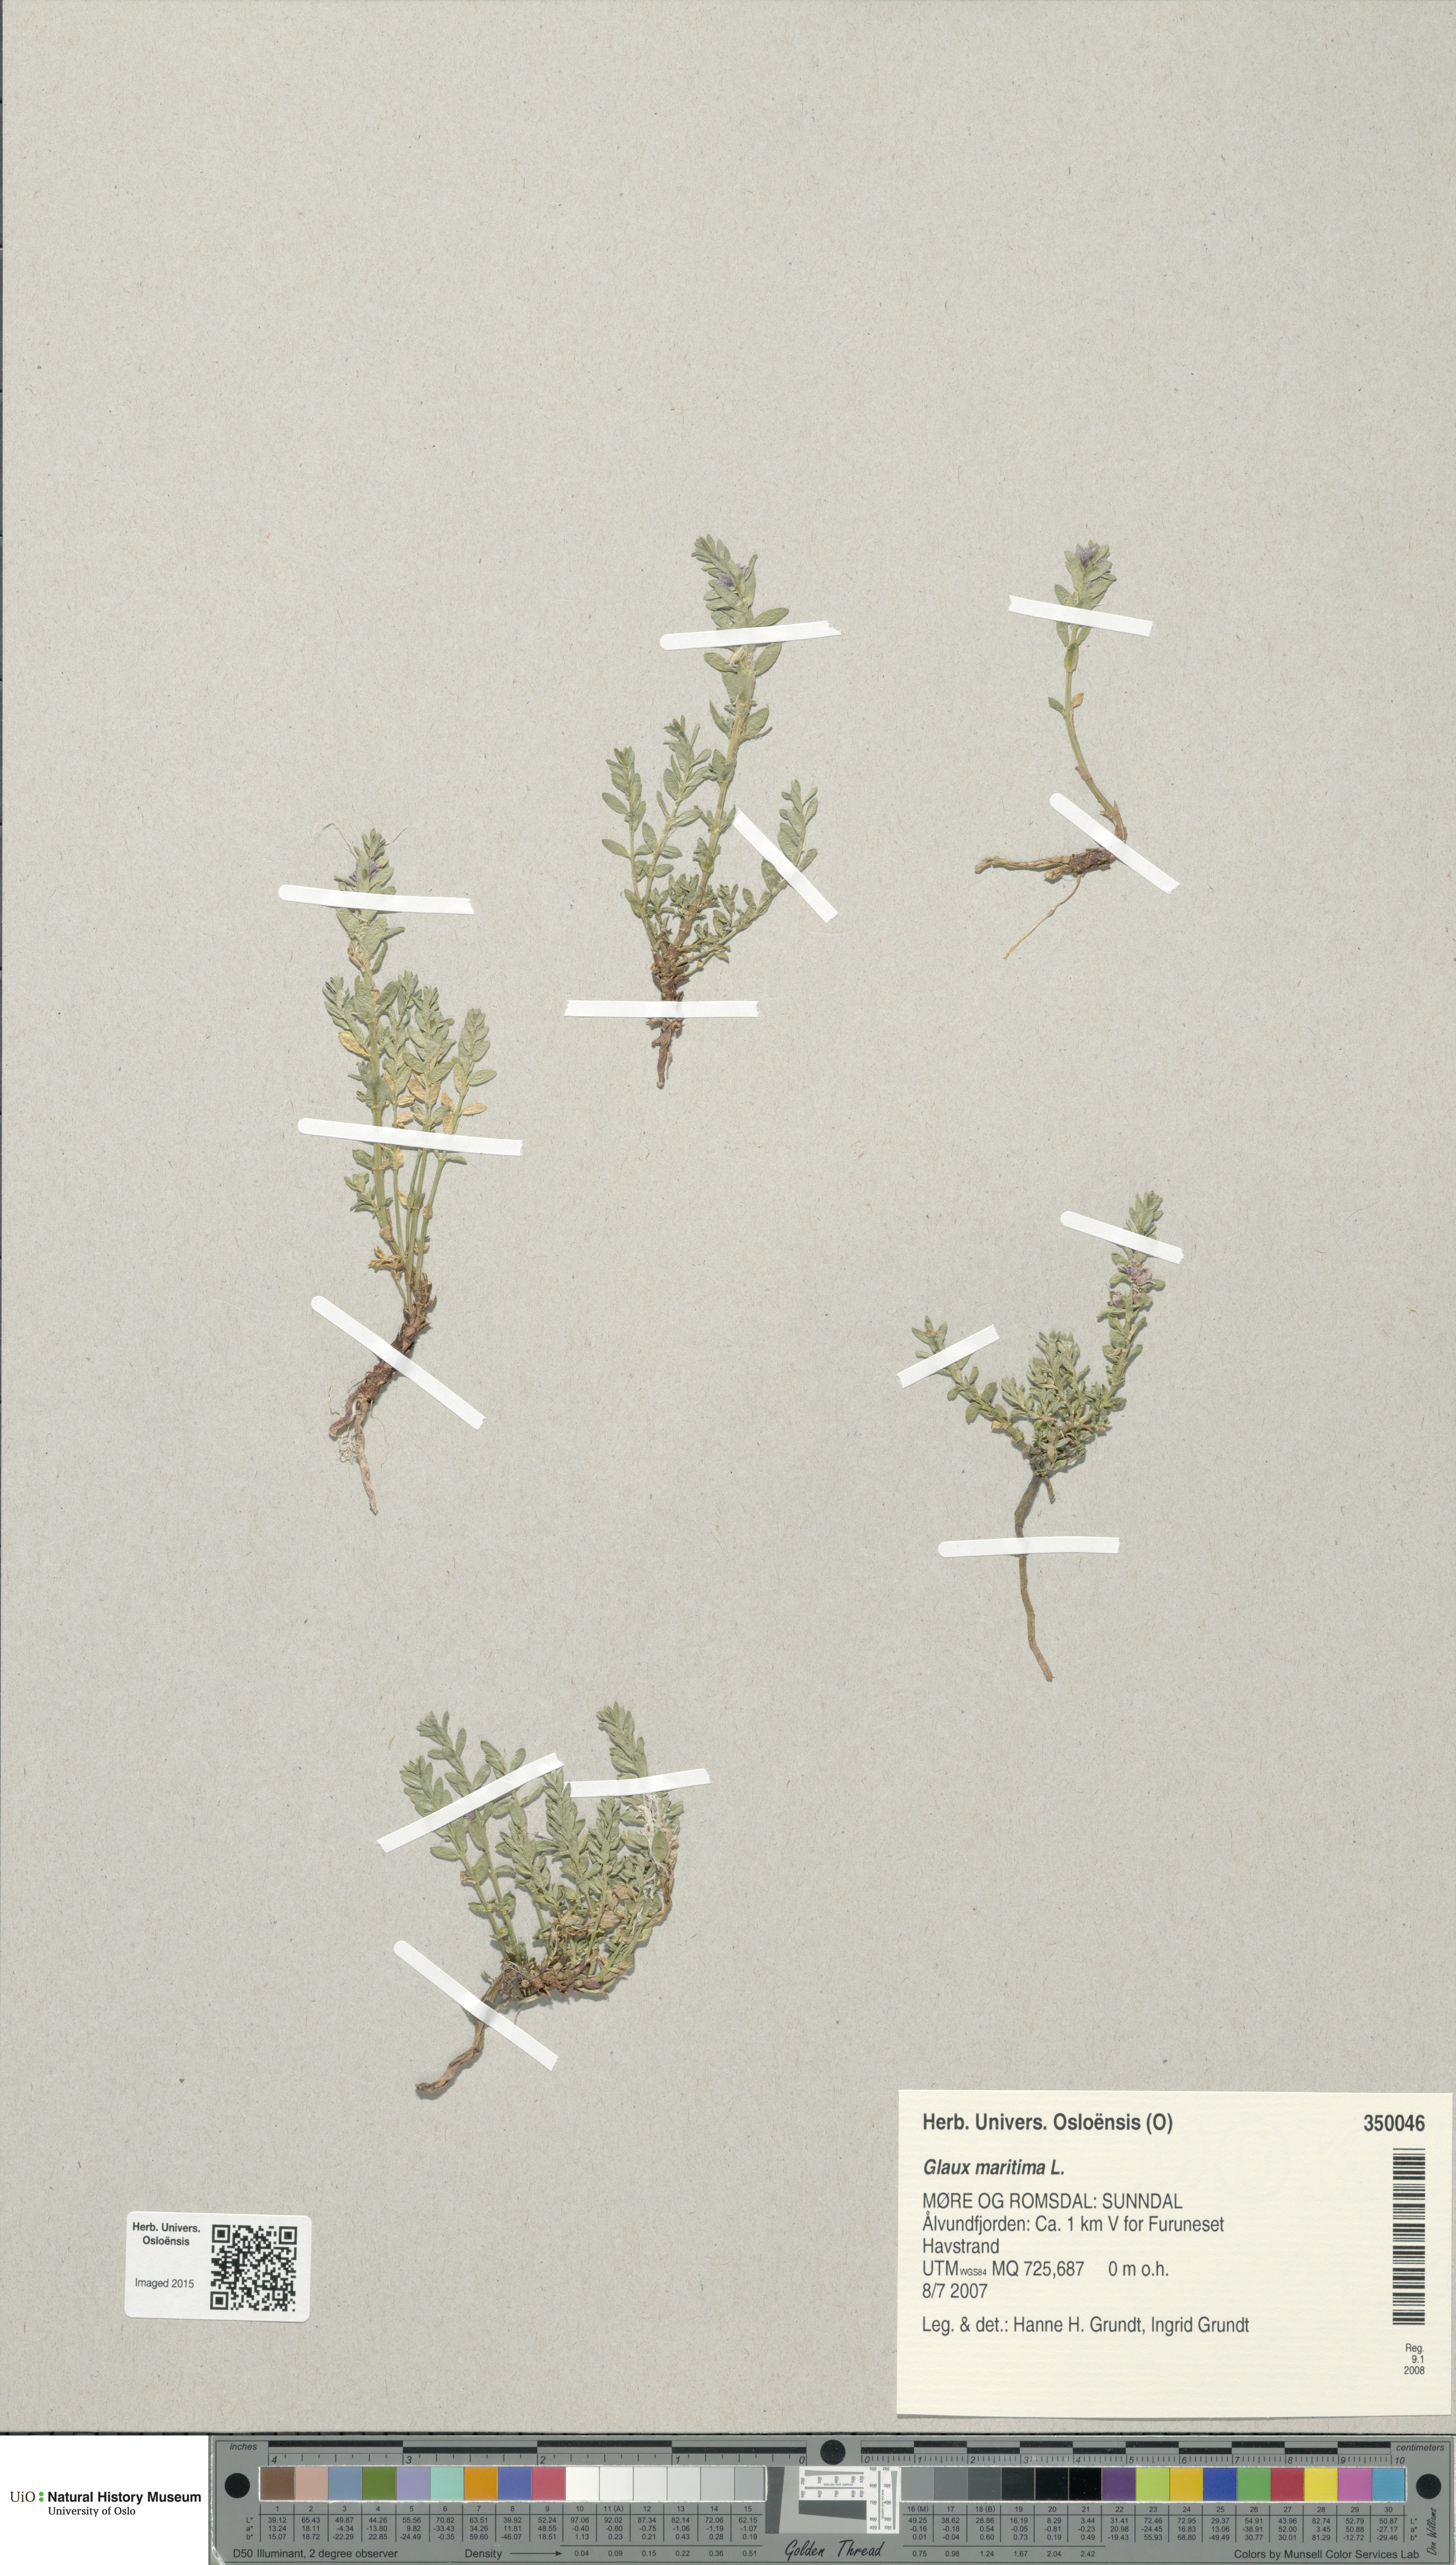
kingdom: Plantae
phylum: Tracheophyta
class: Magnoliopsida
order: Ericales
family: Primulaceae
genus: Lysimachia
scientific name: Lysimachia maritima
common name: Sea milkwort
